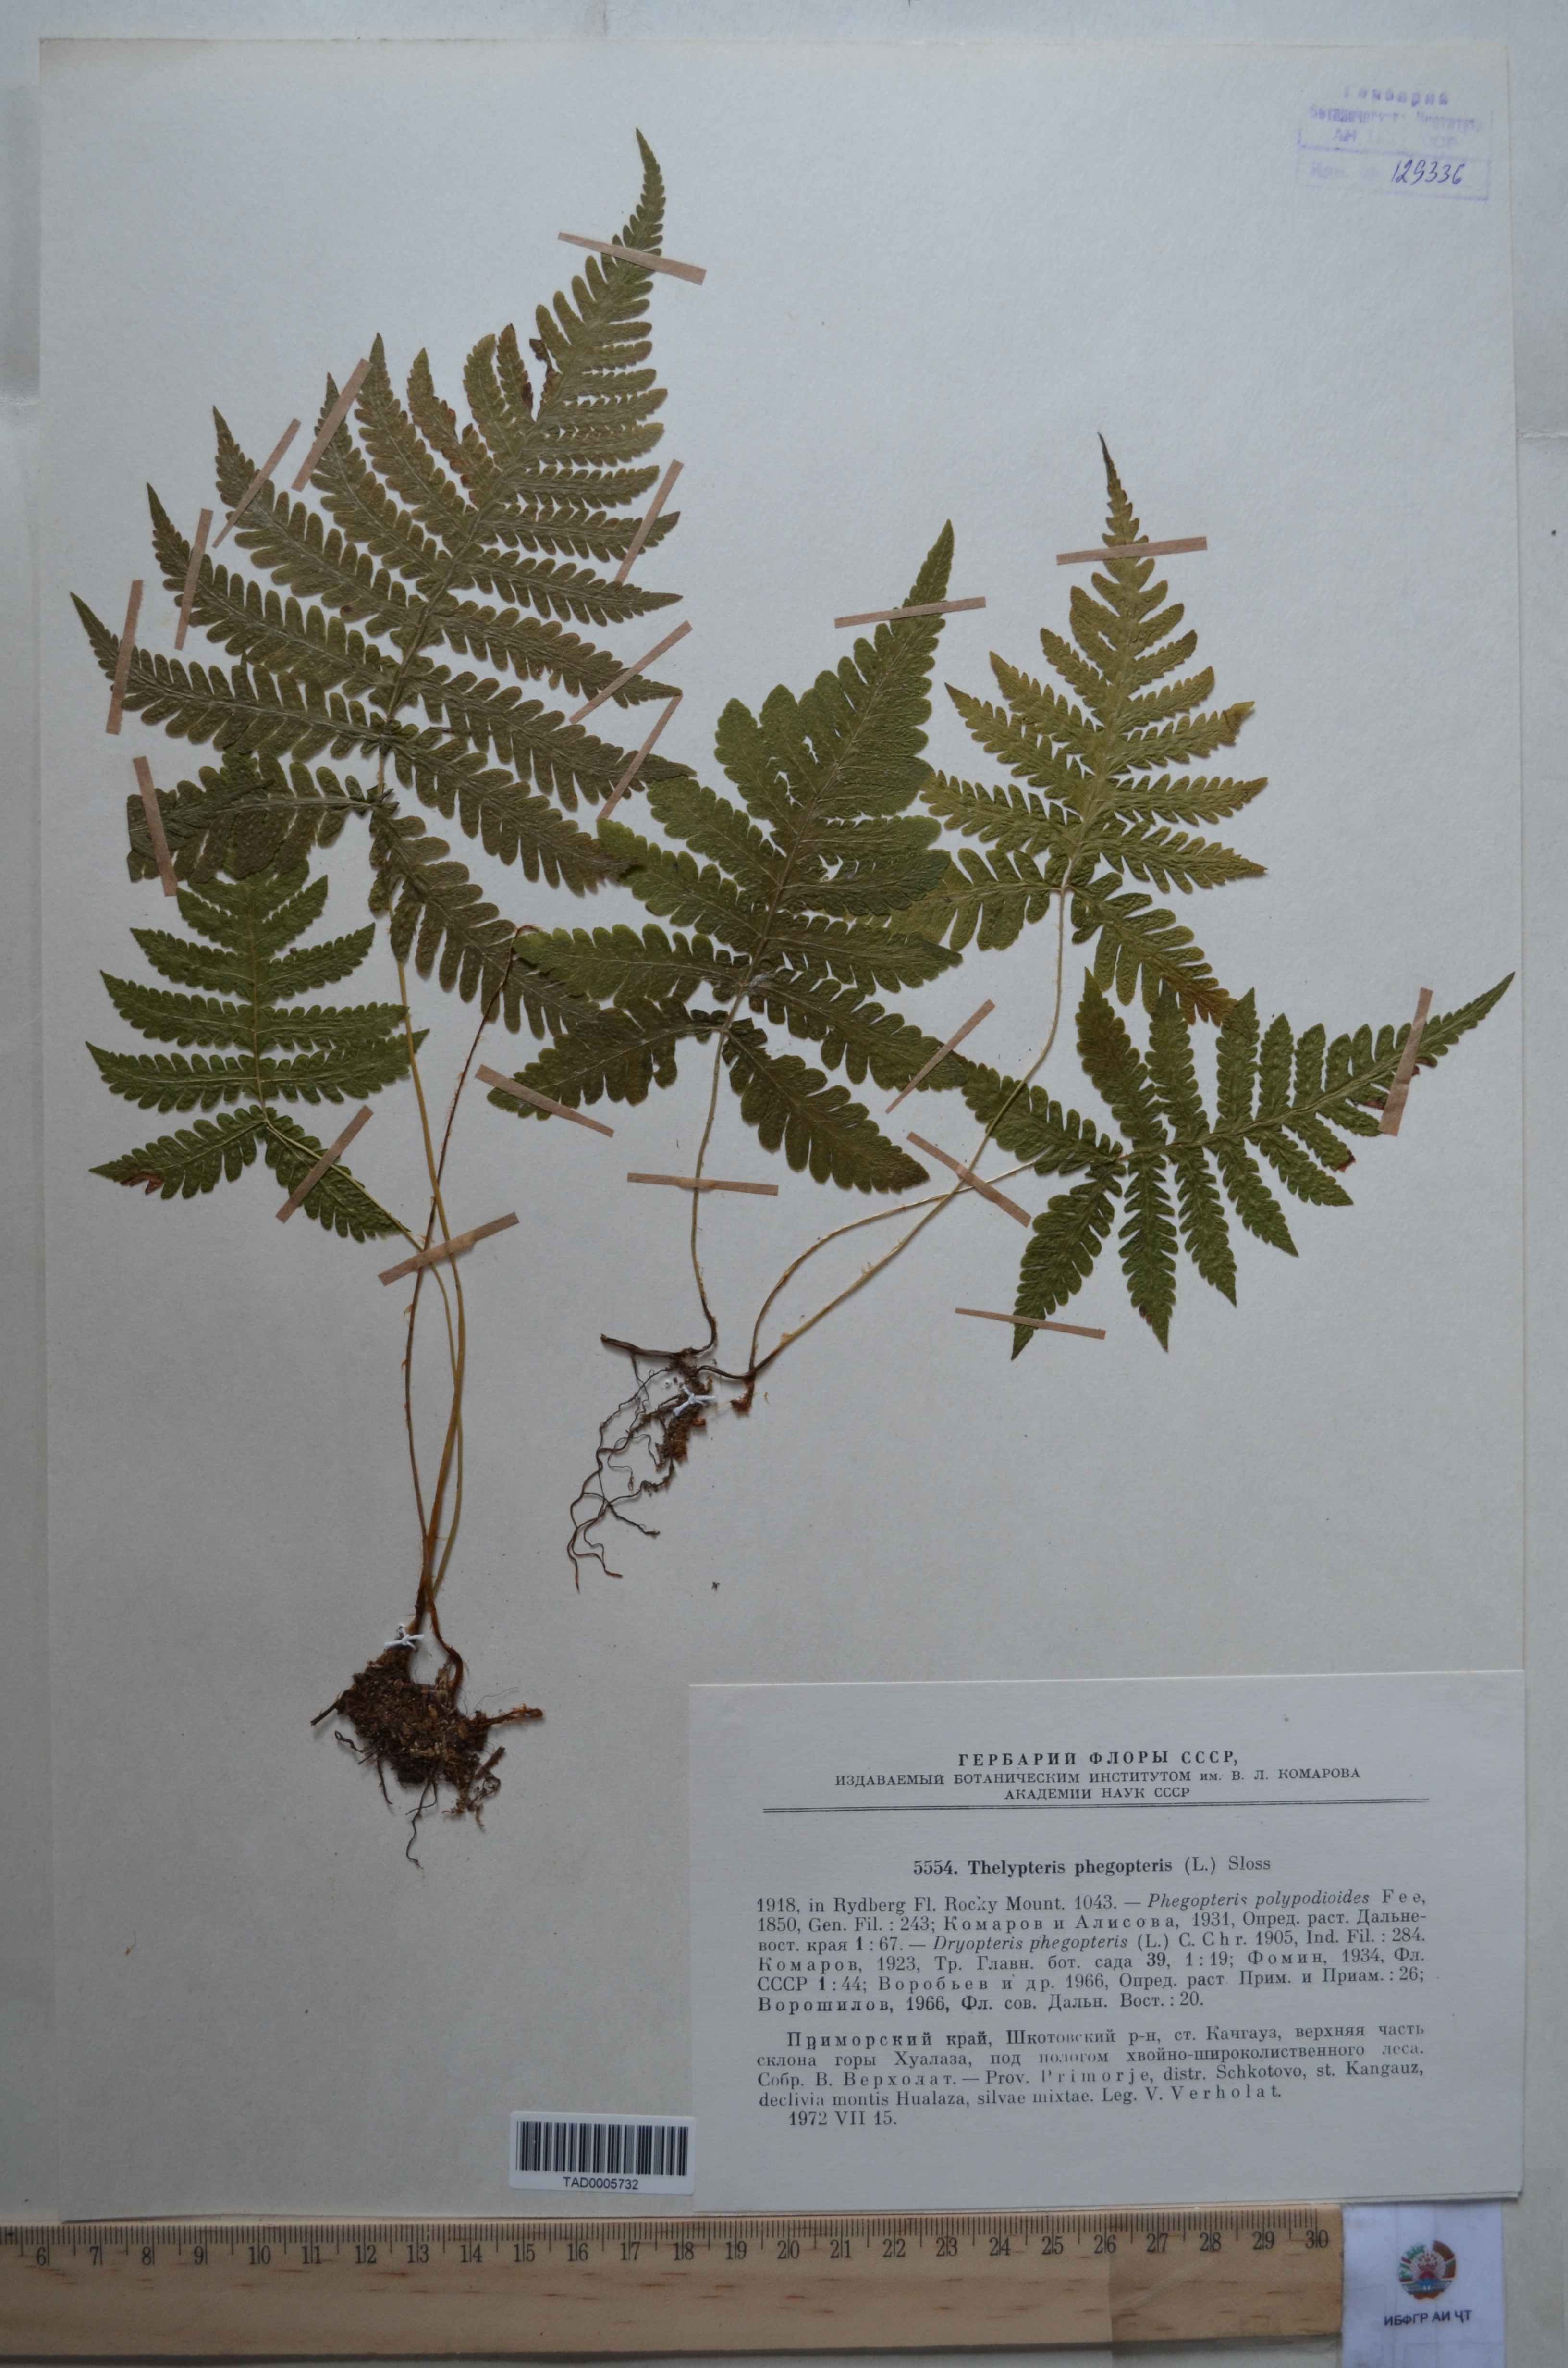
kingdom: Plantae
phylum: Tracheophyta
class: Polypodiopsida
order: Polypodiales
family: Thelypteridaceae
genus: Phegopteris
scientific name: Phegopteris connectilis
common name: Beech fern
